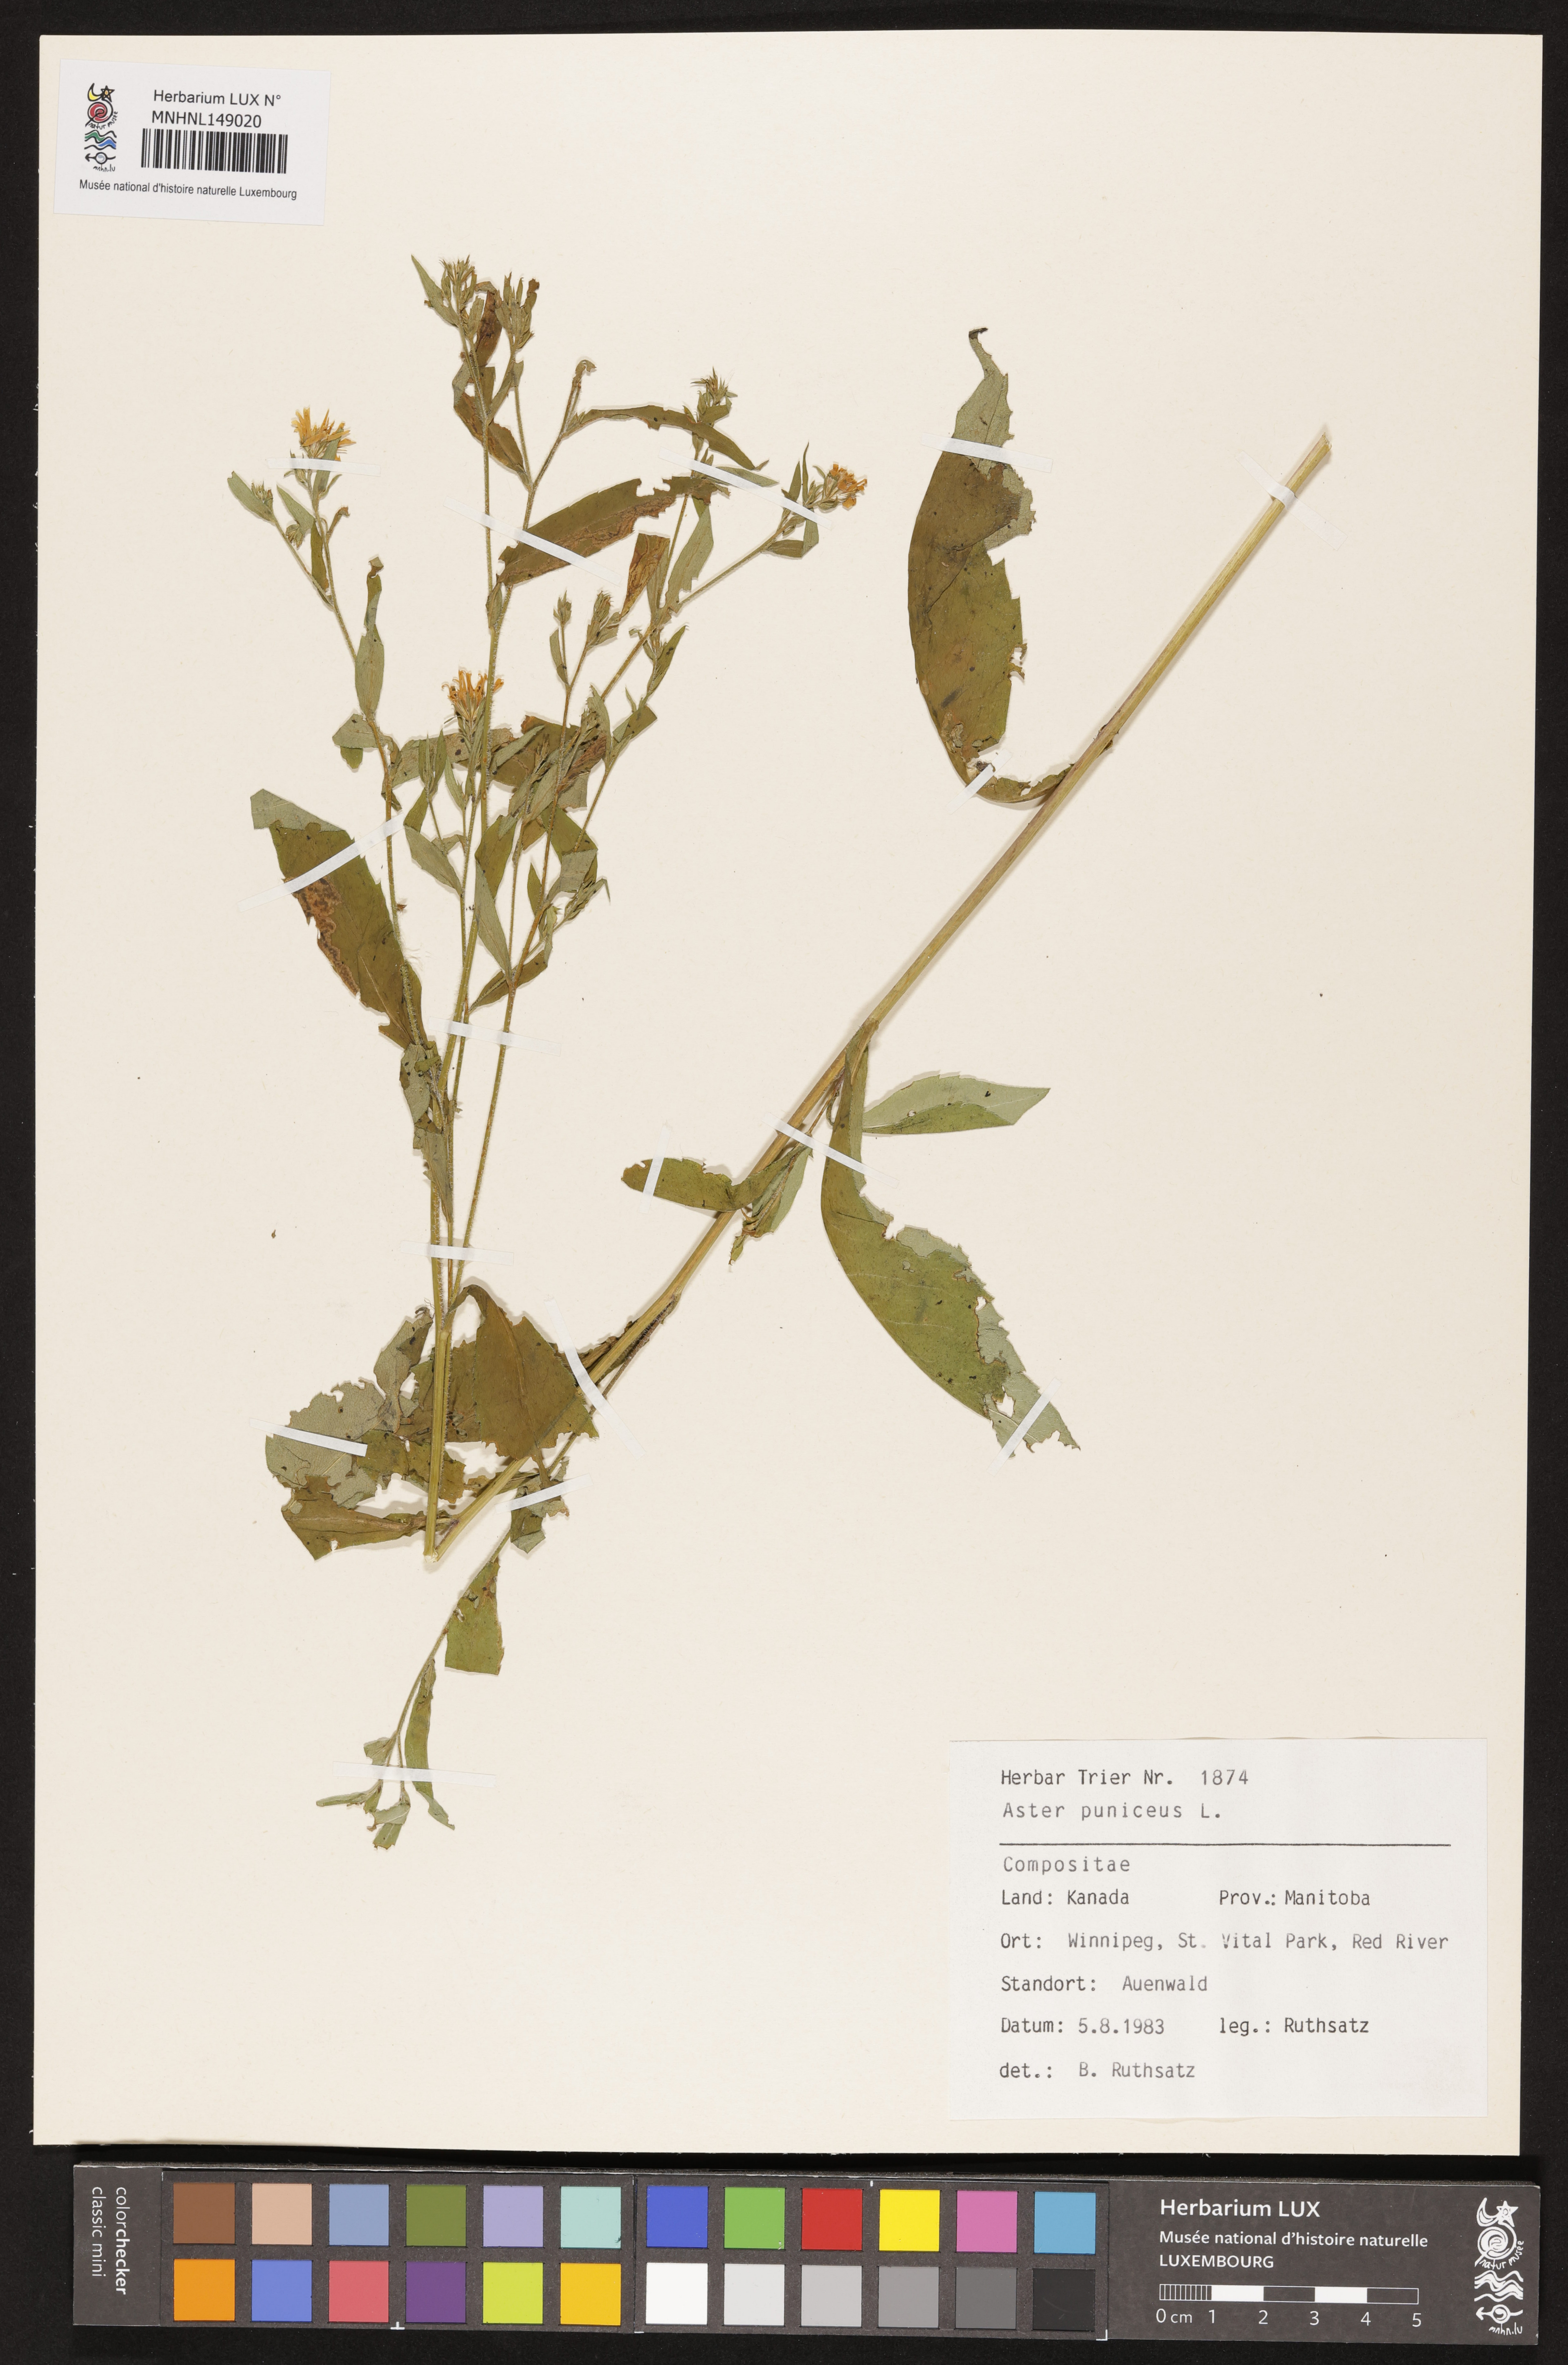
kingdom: Plantae
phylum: Tracheophyta
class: Magnoliopsida
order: Asterales
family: Asteraceae
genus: Symphyotrichum
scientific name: Symphyotrichum puniceum
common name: Bog aster
